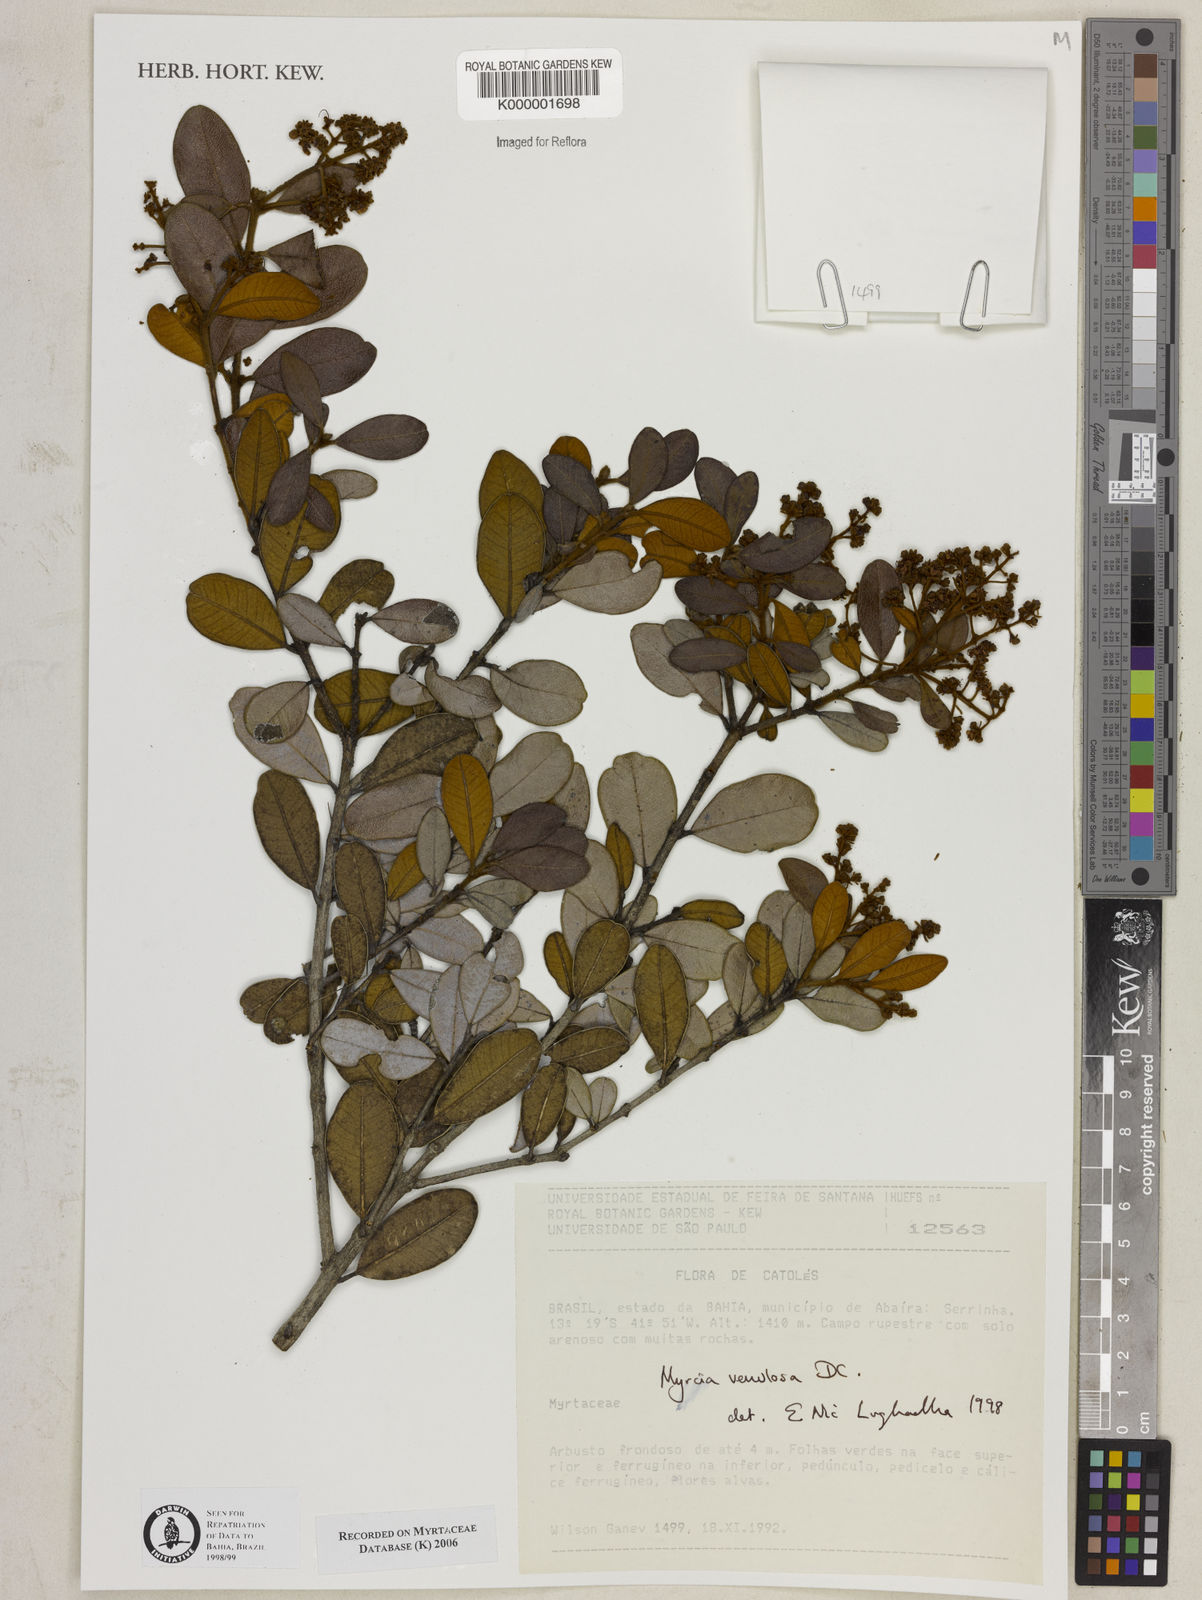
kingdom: Plantae
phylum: Tracheophyta
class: Magnoliopsida
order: Myrtales
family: Myrtaceae
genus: Myrcia
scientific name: Myrcia venulosa
